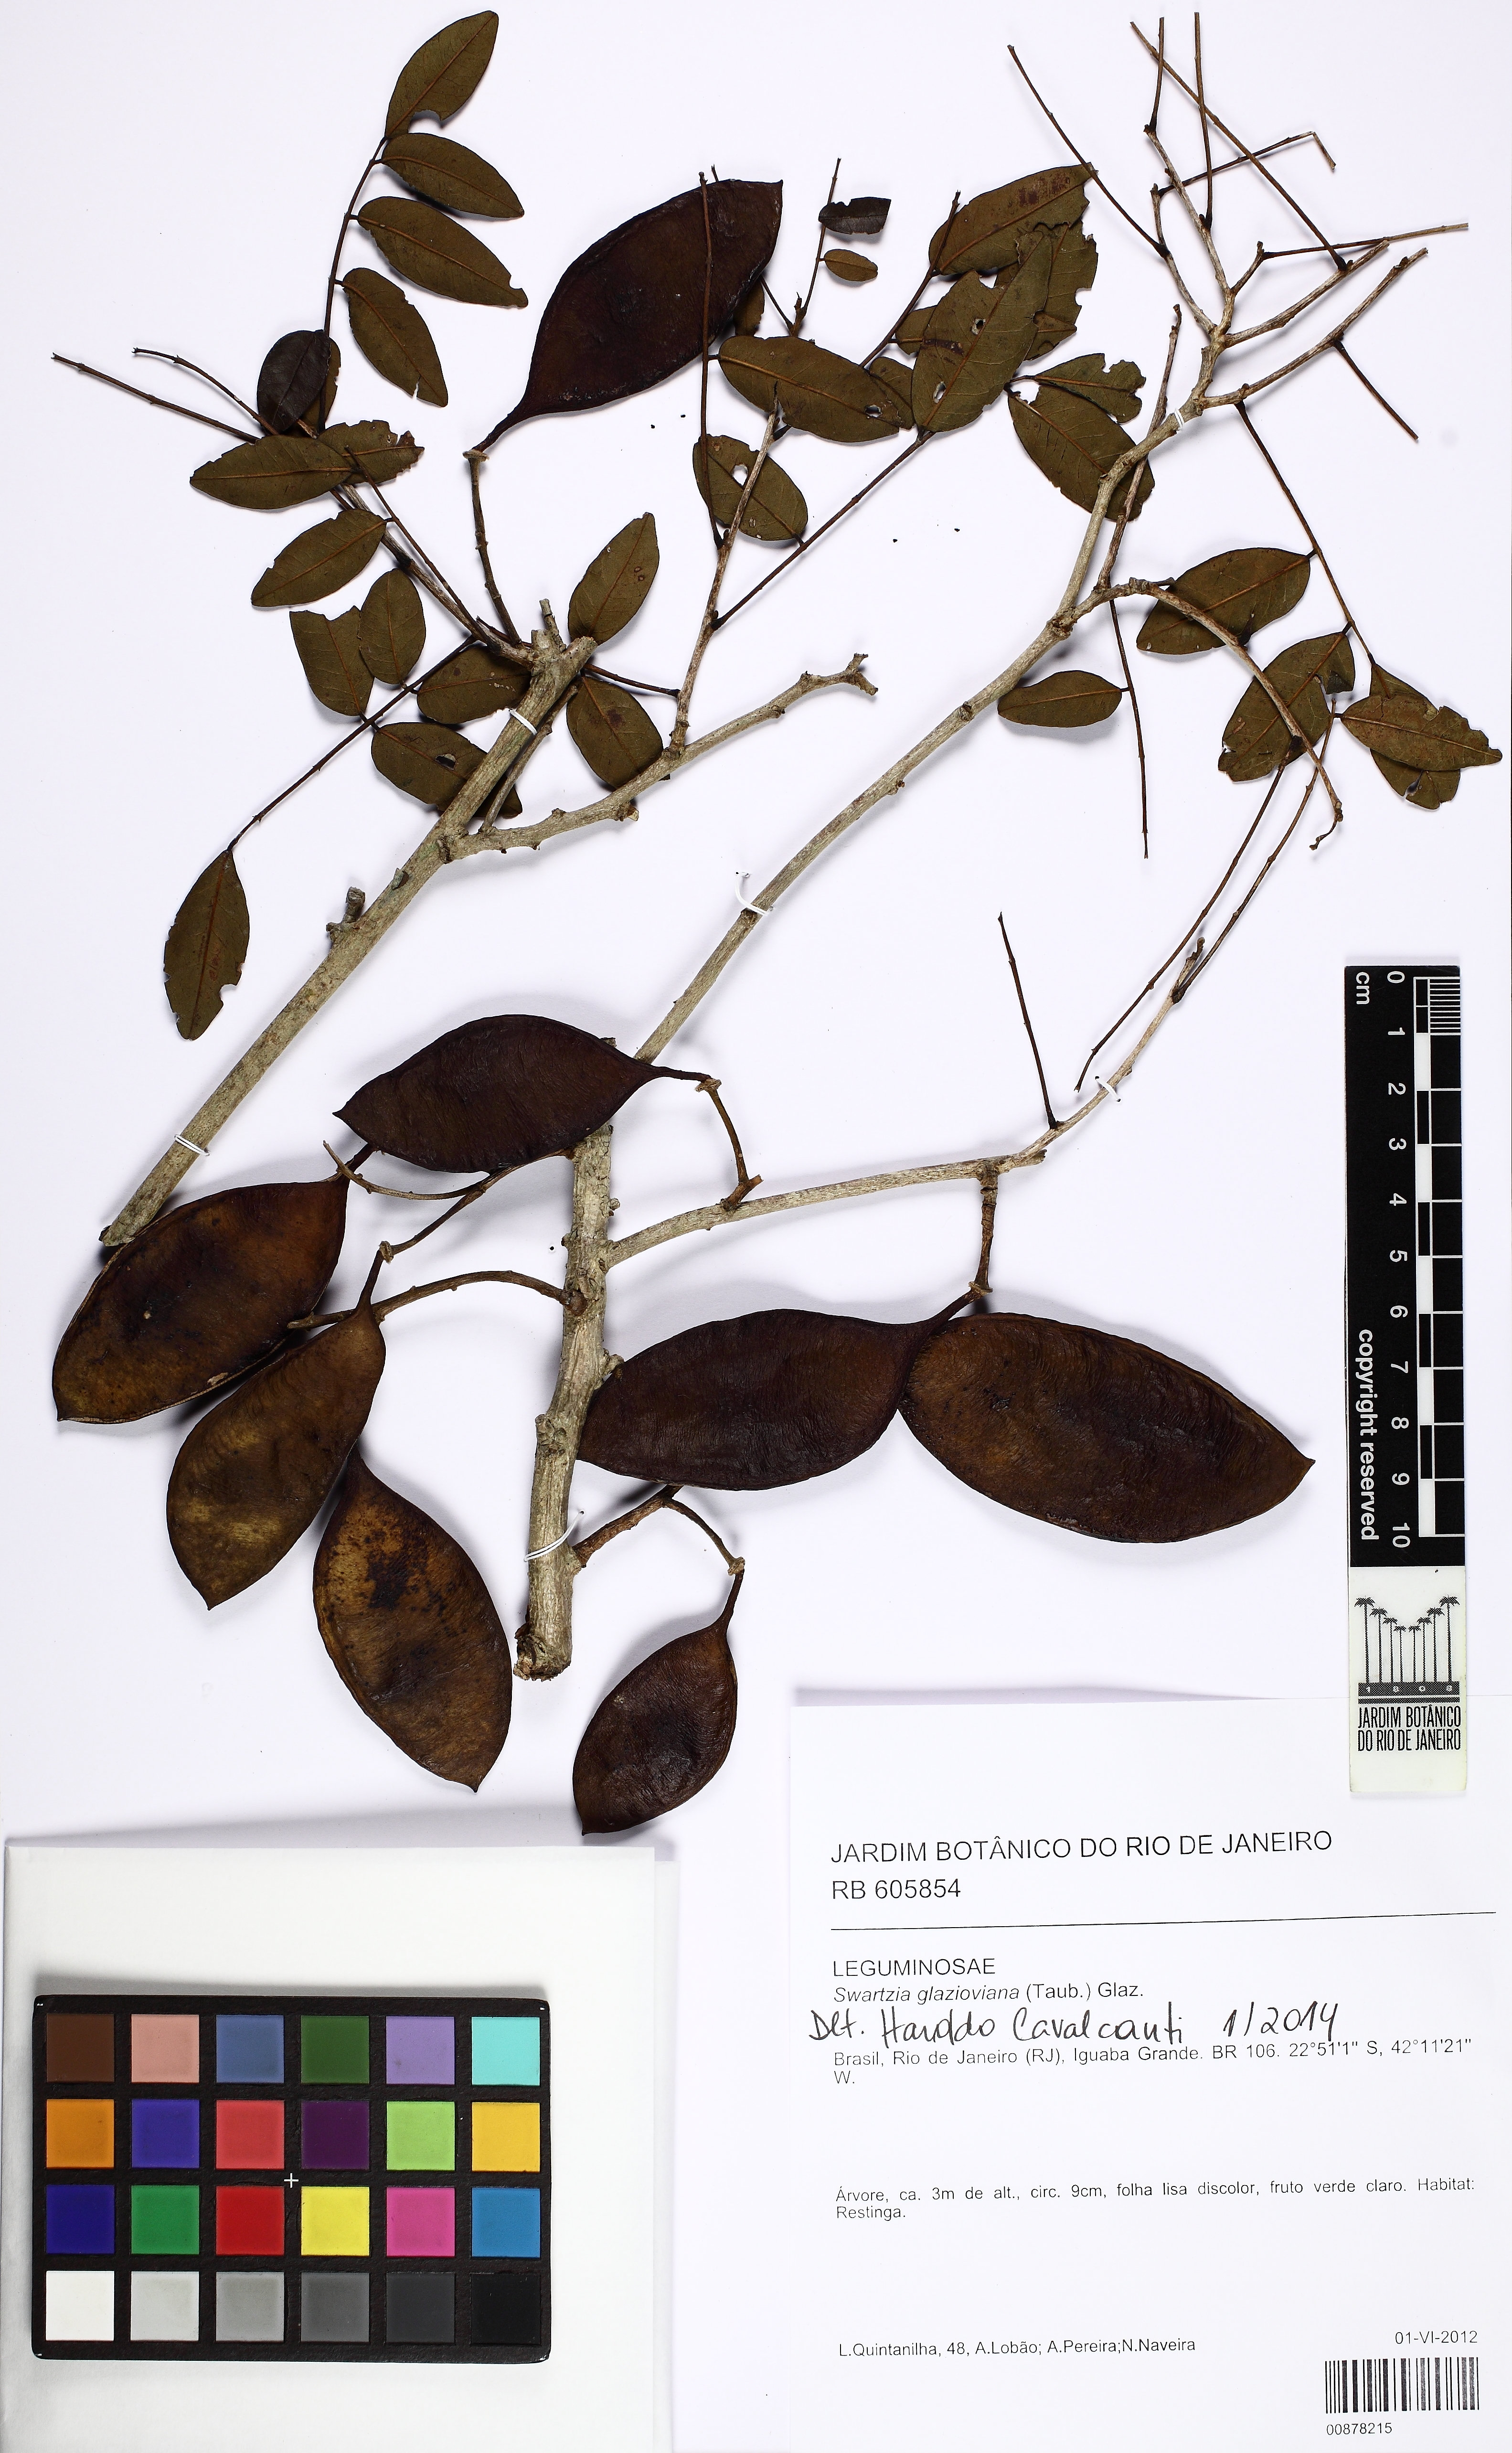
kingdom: Plantae
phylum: Tracheophyta
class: Magnoliopsida
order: Fabales
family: Fabaceae
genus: Swartzia
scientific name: Swartzia glazioviana
